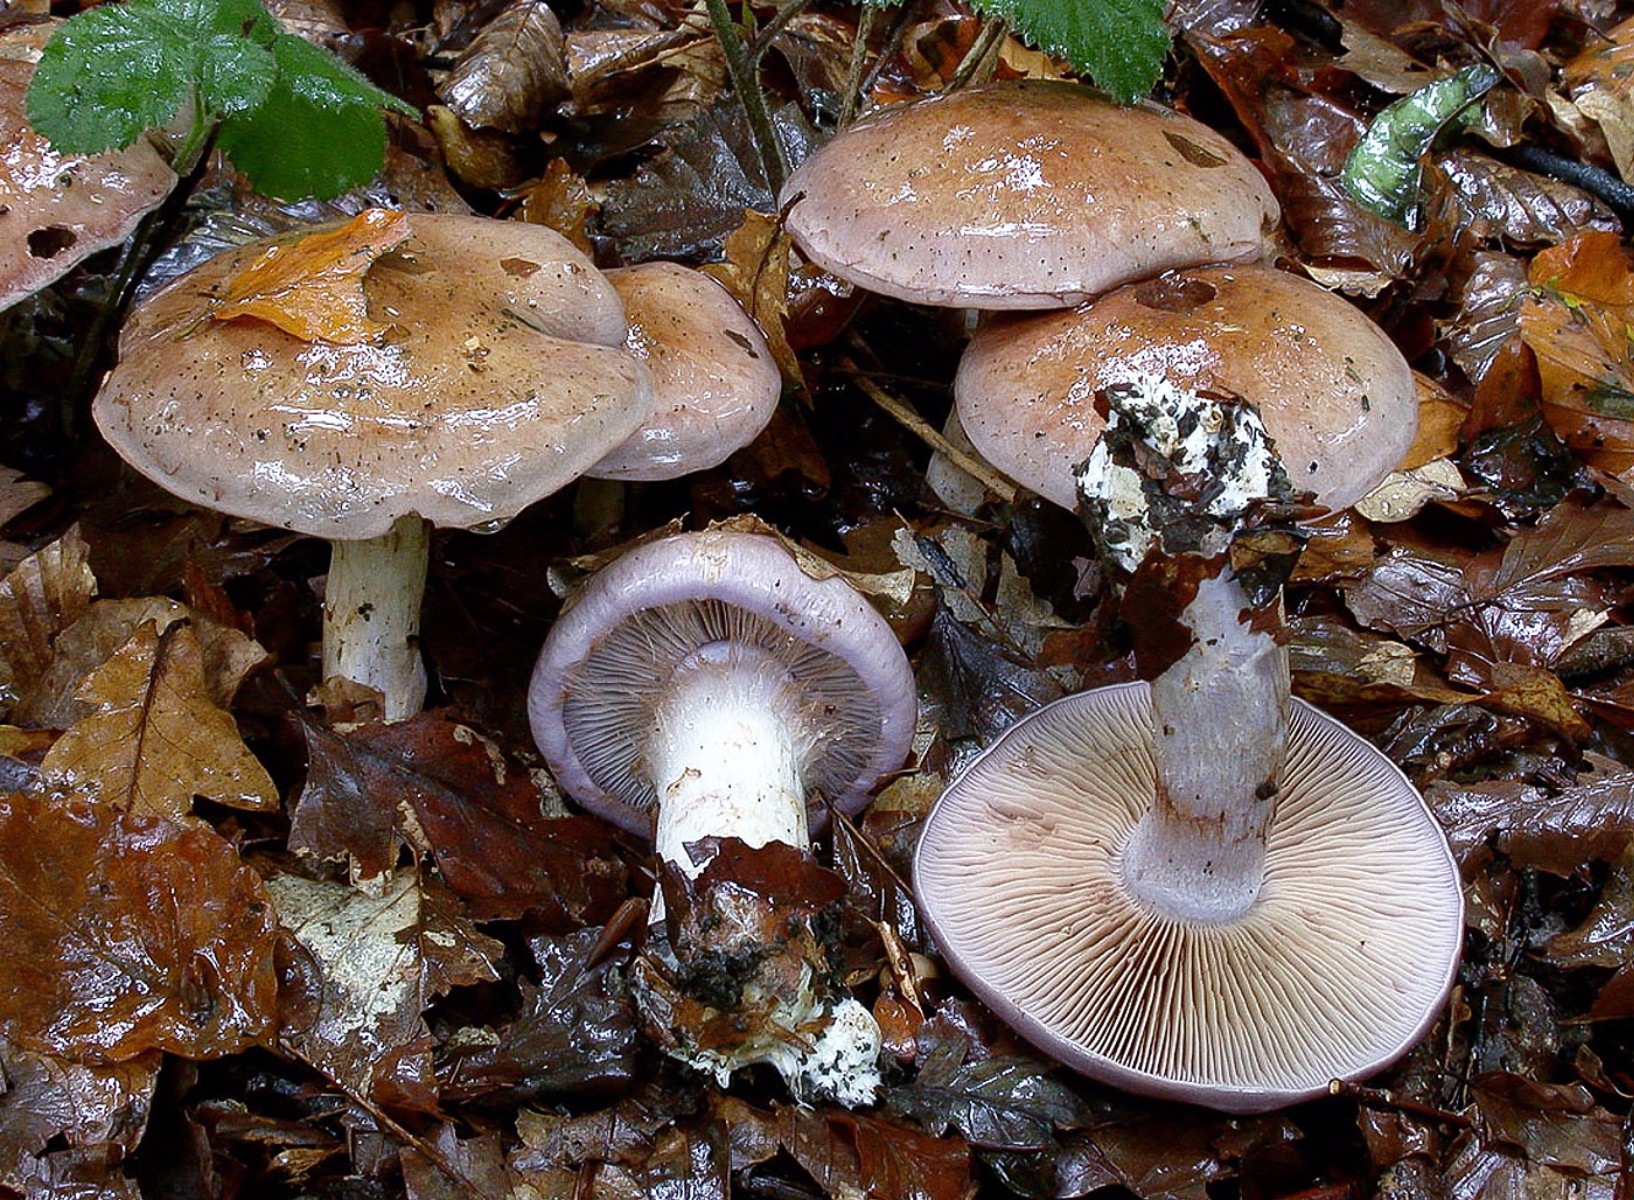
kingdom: Fungi
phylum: Basidiomycota
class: Agaricomycetes
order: Agaricales
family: Cortinariaceae
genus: Cortinarius
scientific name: Cortinarius largus
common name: violetrandet slørhat
